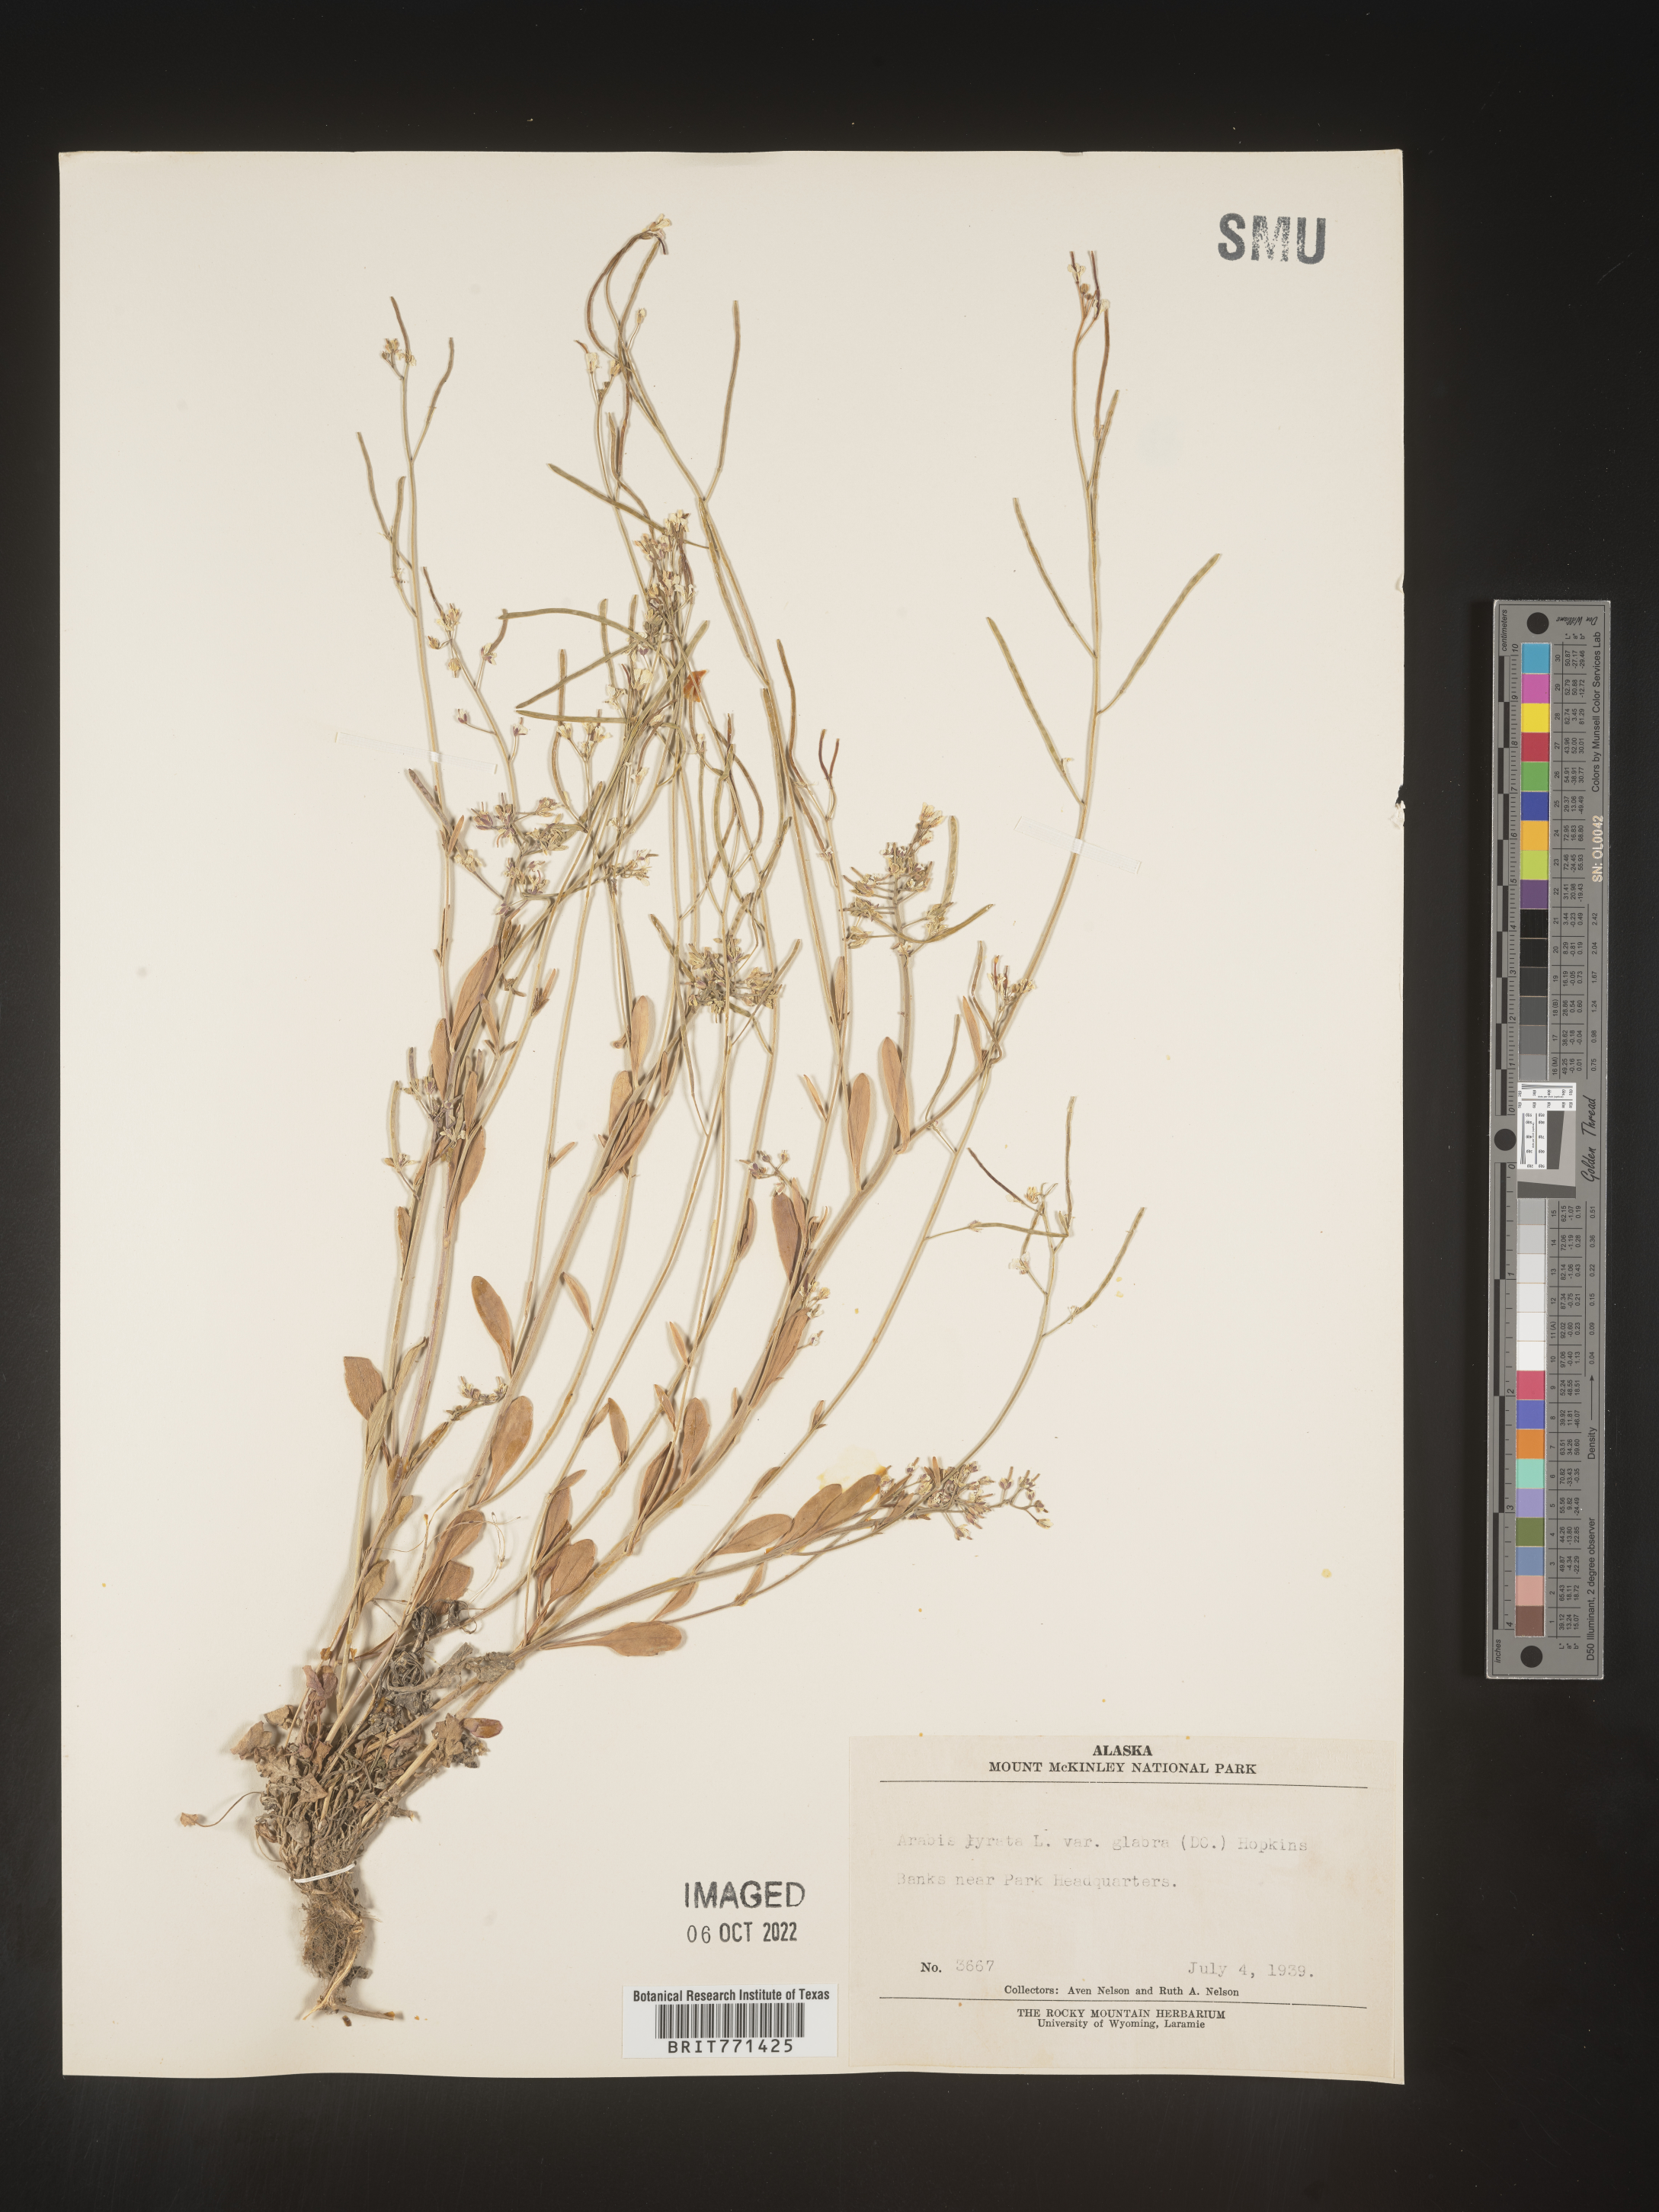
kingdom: Plantae
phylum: Tracheophyta
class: Magnoliopsida
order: Brassicales
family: Brassicaceae
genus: Arabidopsis
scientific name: Arabidopsis lyrata
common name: Lyrate rockcress
